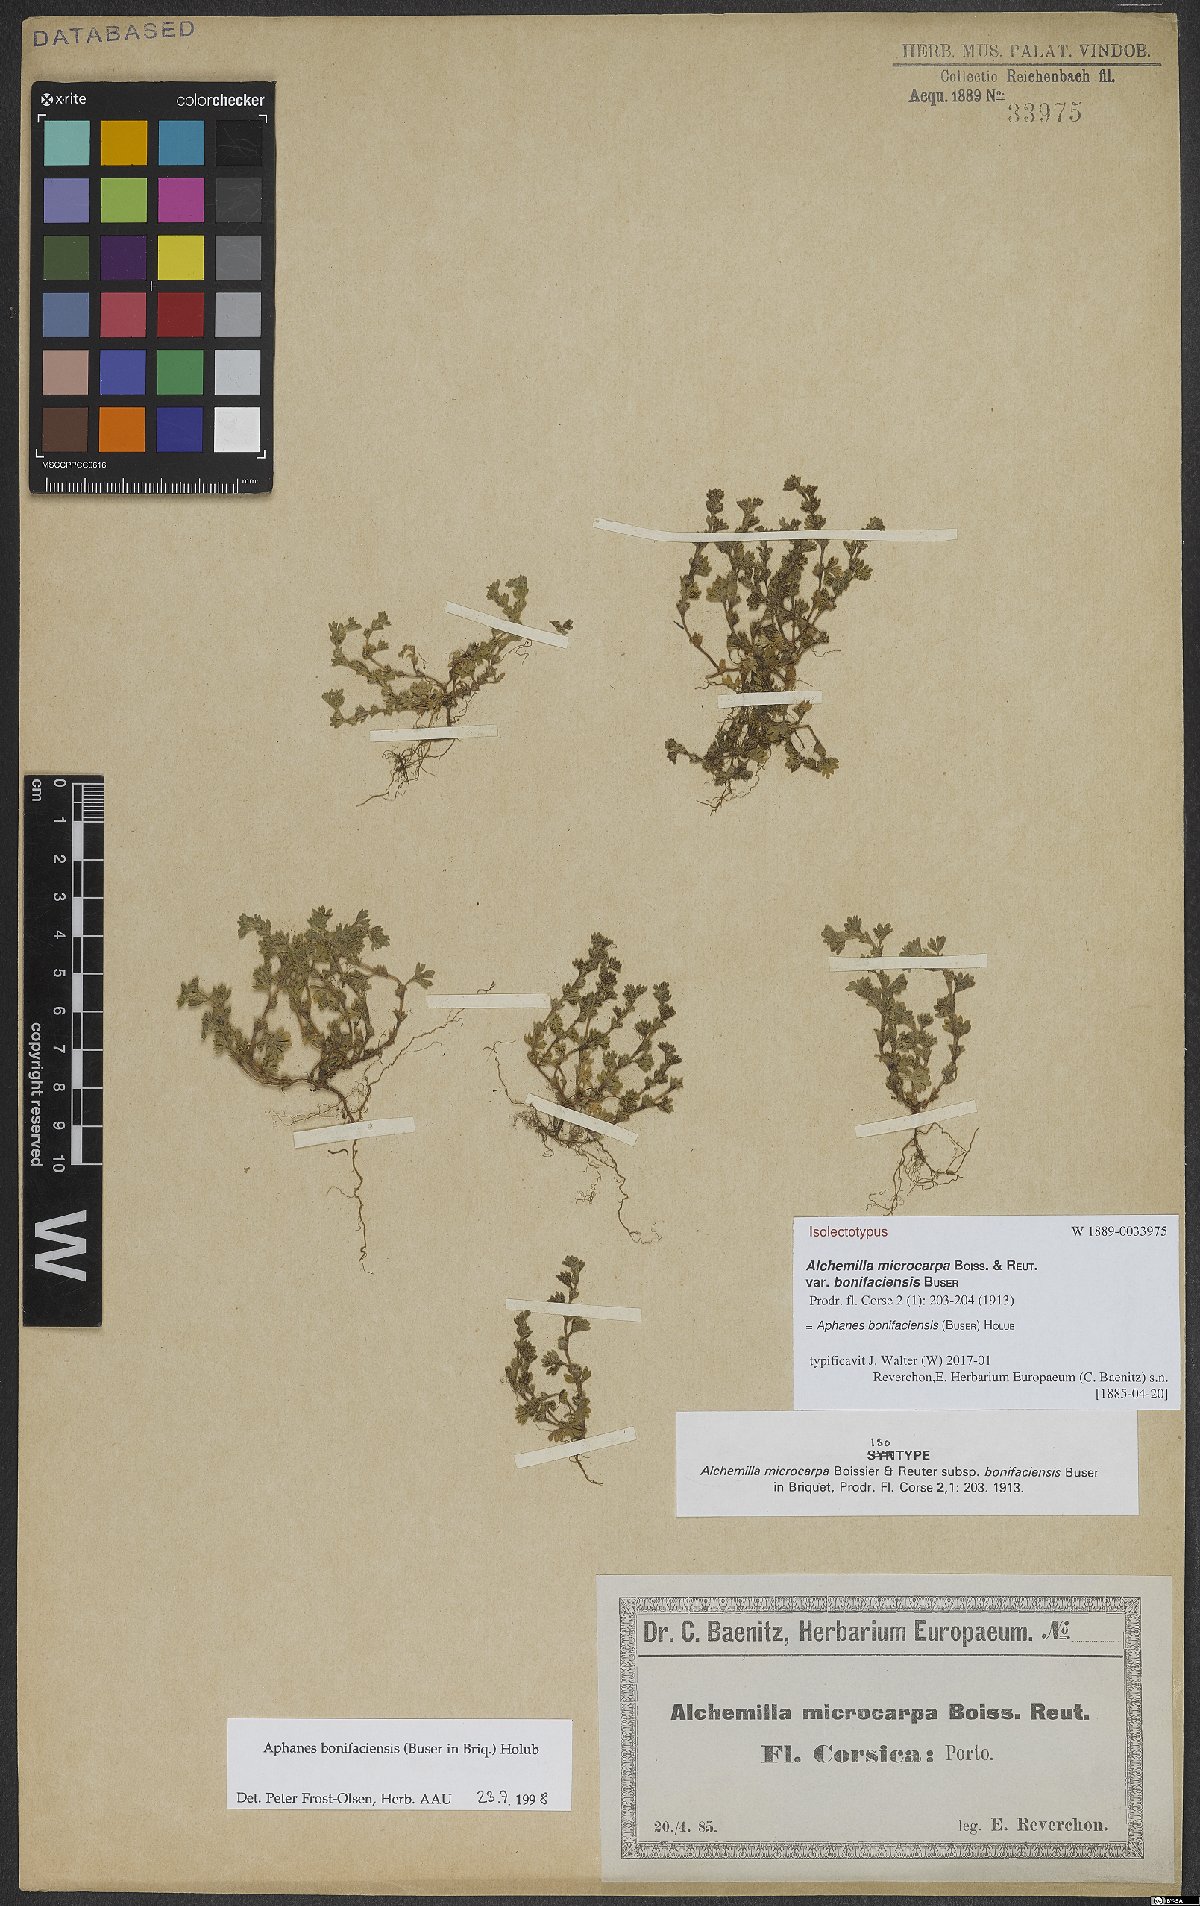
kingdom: Plantae
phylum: Tracheophyta
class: Magnoliopsida
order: Rosales
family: Rosaceae
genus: Aphanes
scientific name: Aphanes minutiflora
